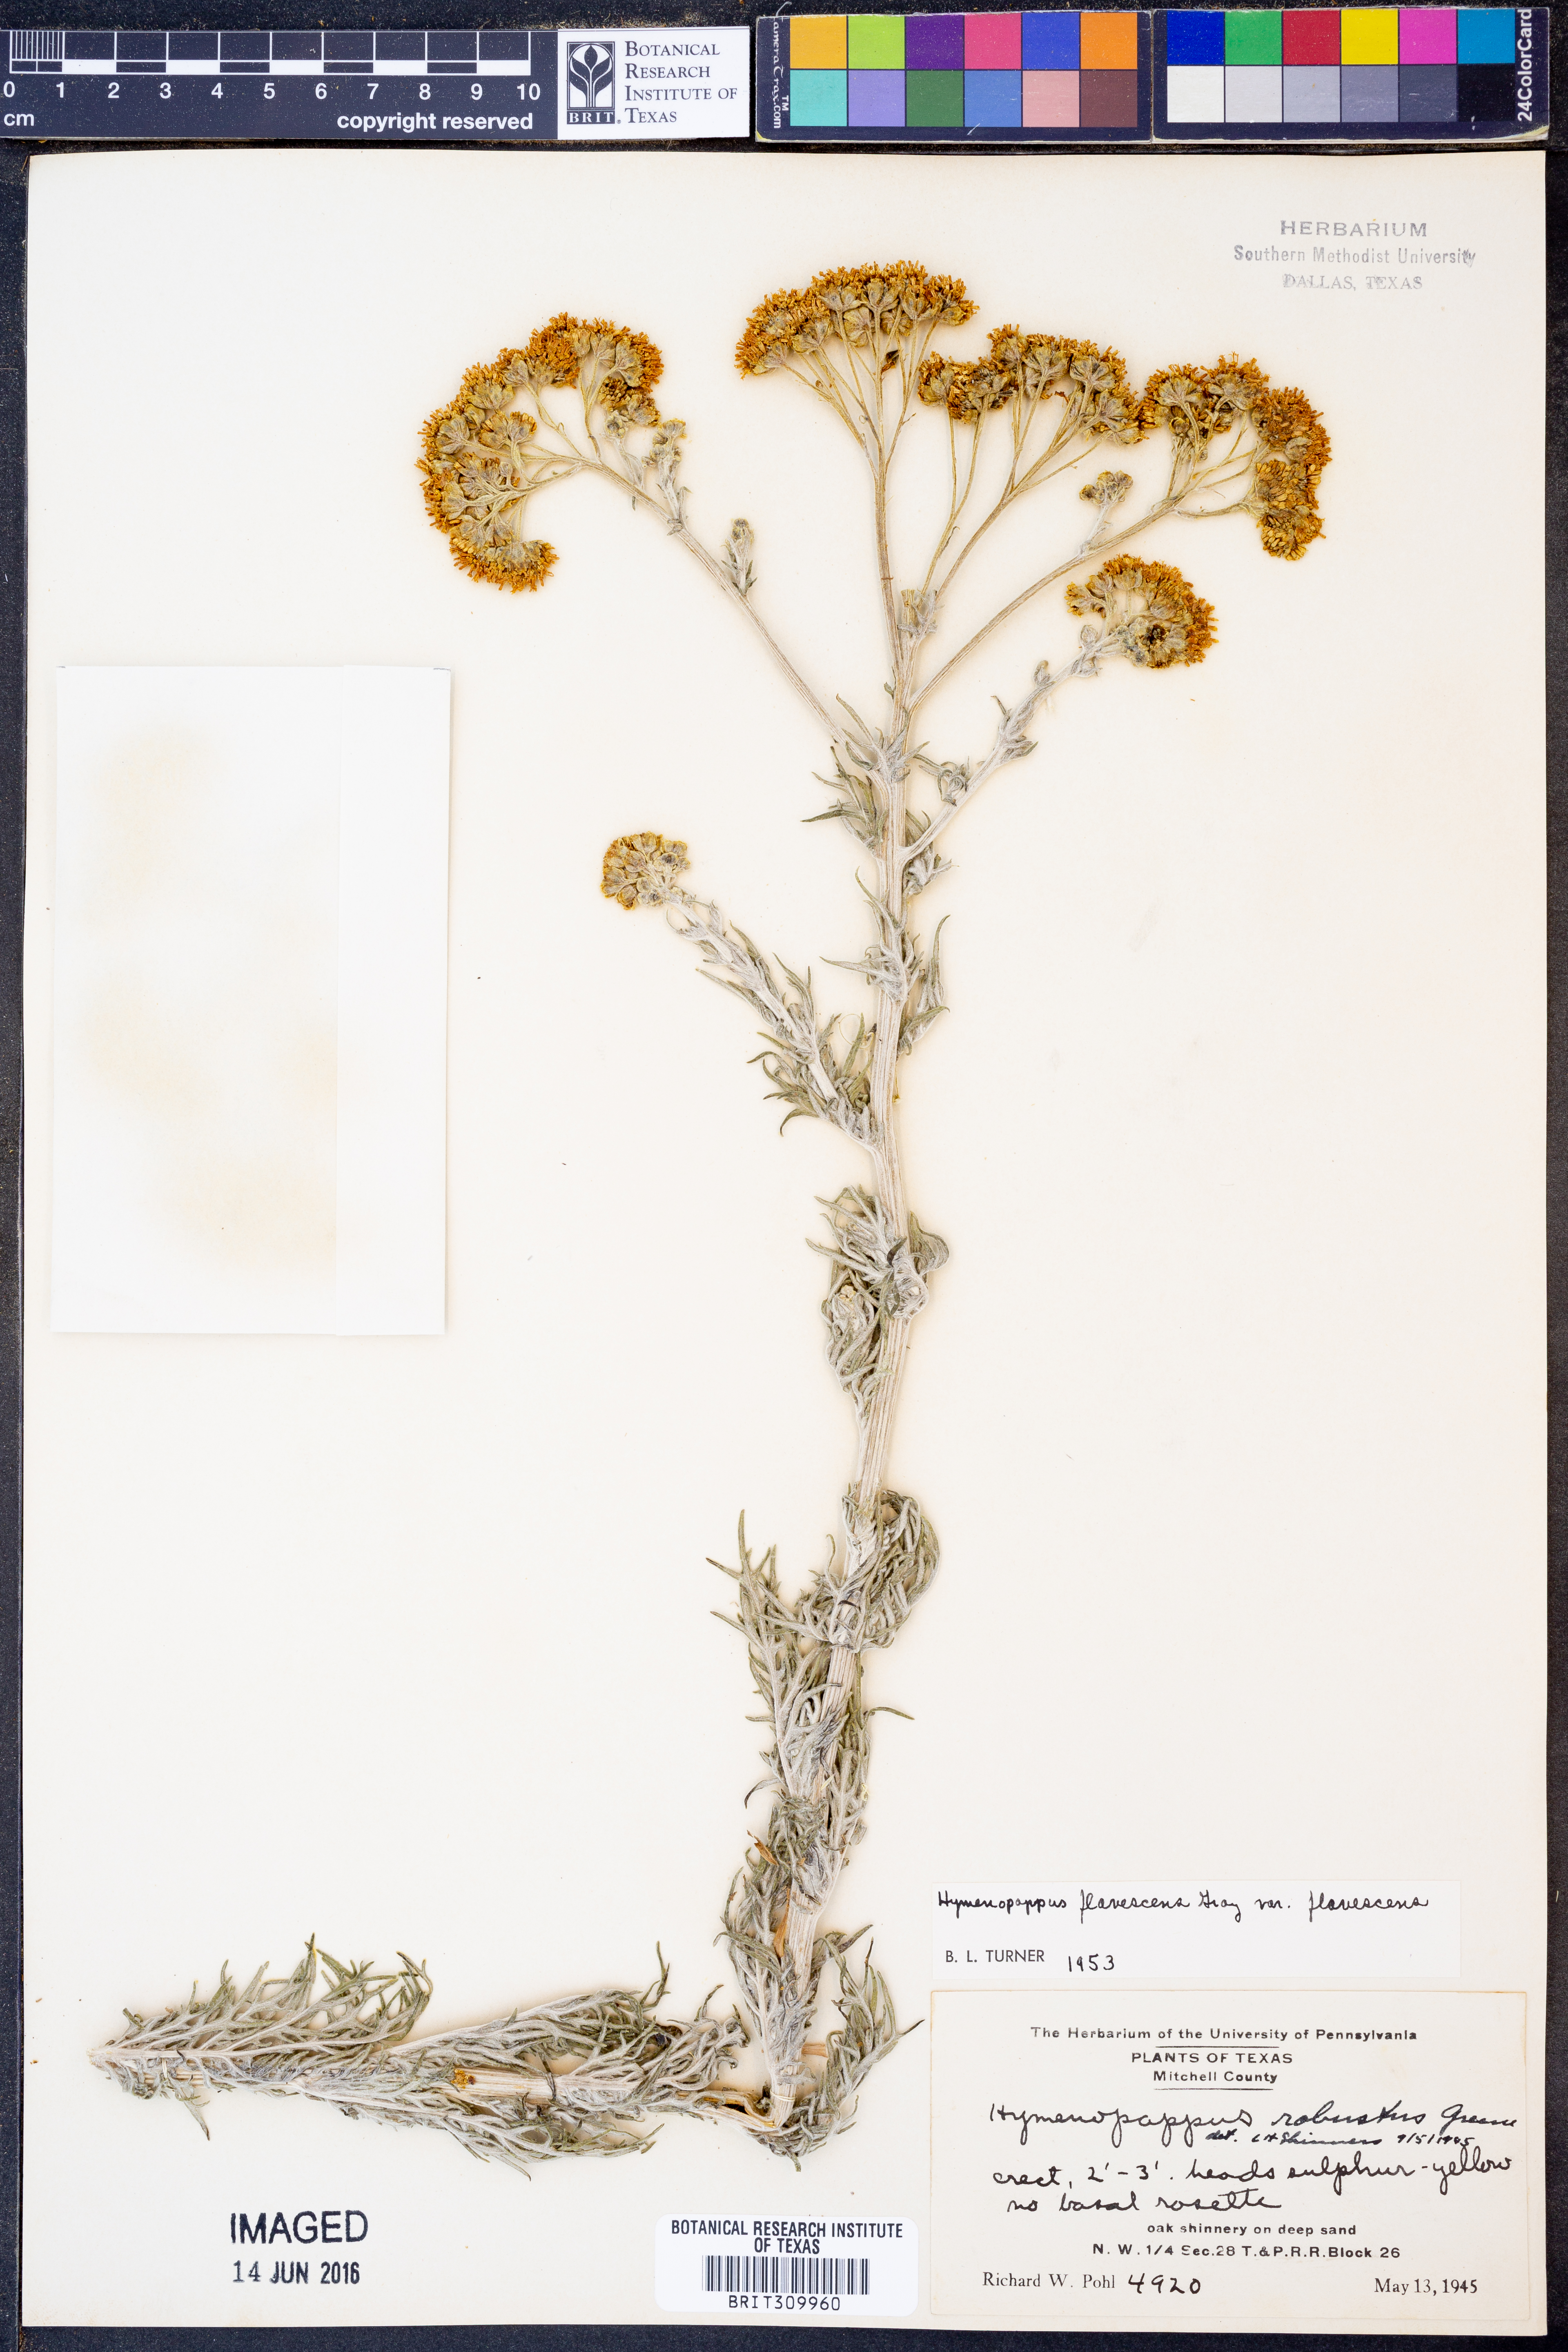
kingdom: Plantae
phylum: Tracheophyta
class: Magnoliopsida
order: Asterales
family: Asteraceae
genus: Hymenopappus
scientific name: Hymenopappus flavescens
